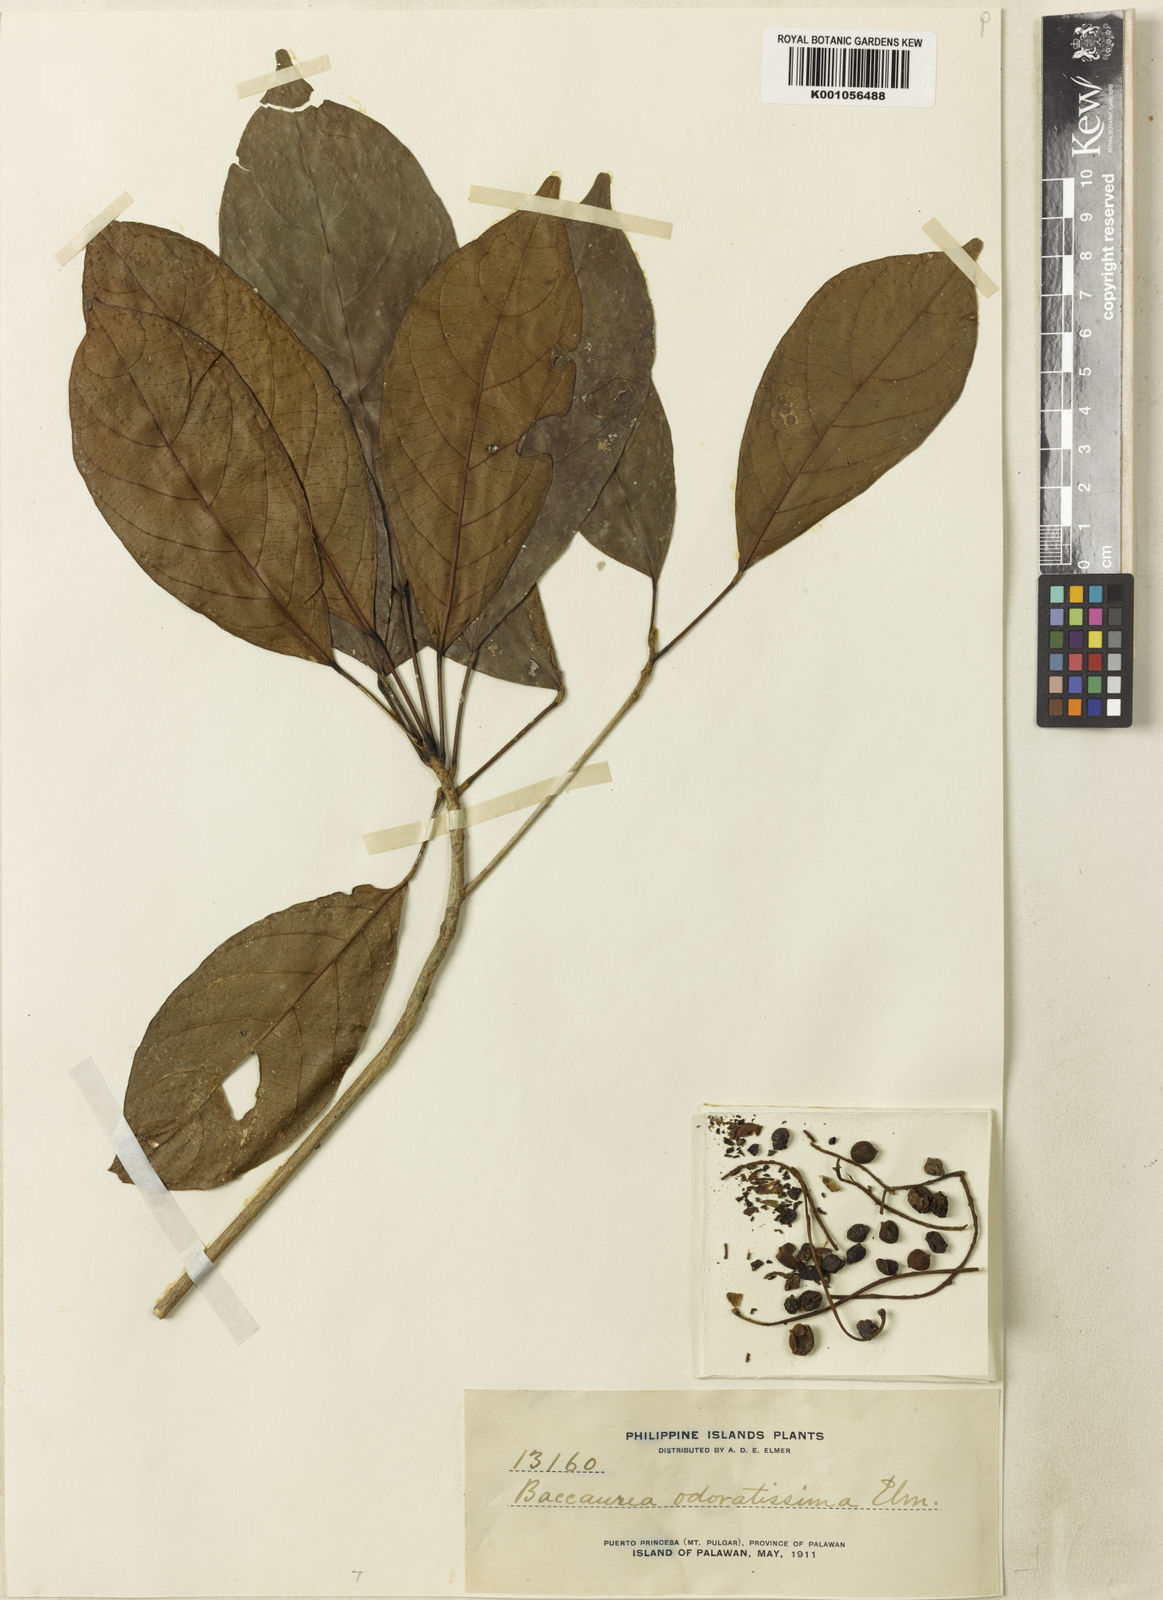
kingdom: Plantae
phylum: Tracheophyta
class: Magnoliopsida
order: Malpighiales
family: Phyllanthaceae
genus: Baccaurea
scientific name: Baccaurea
